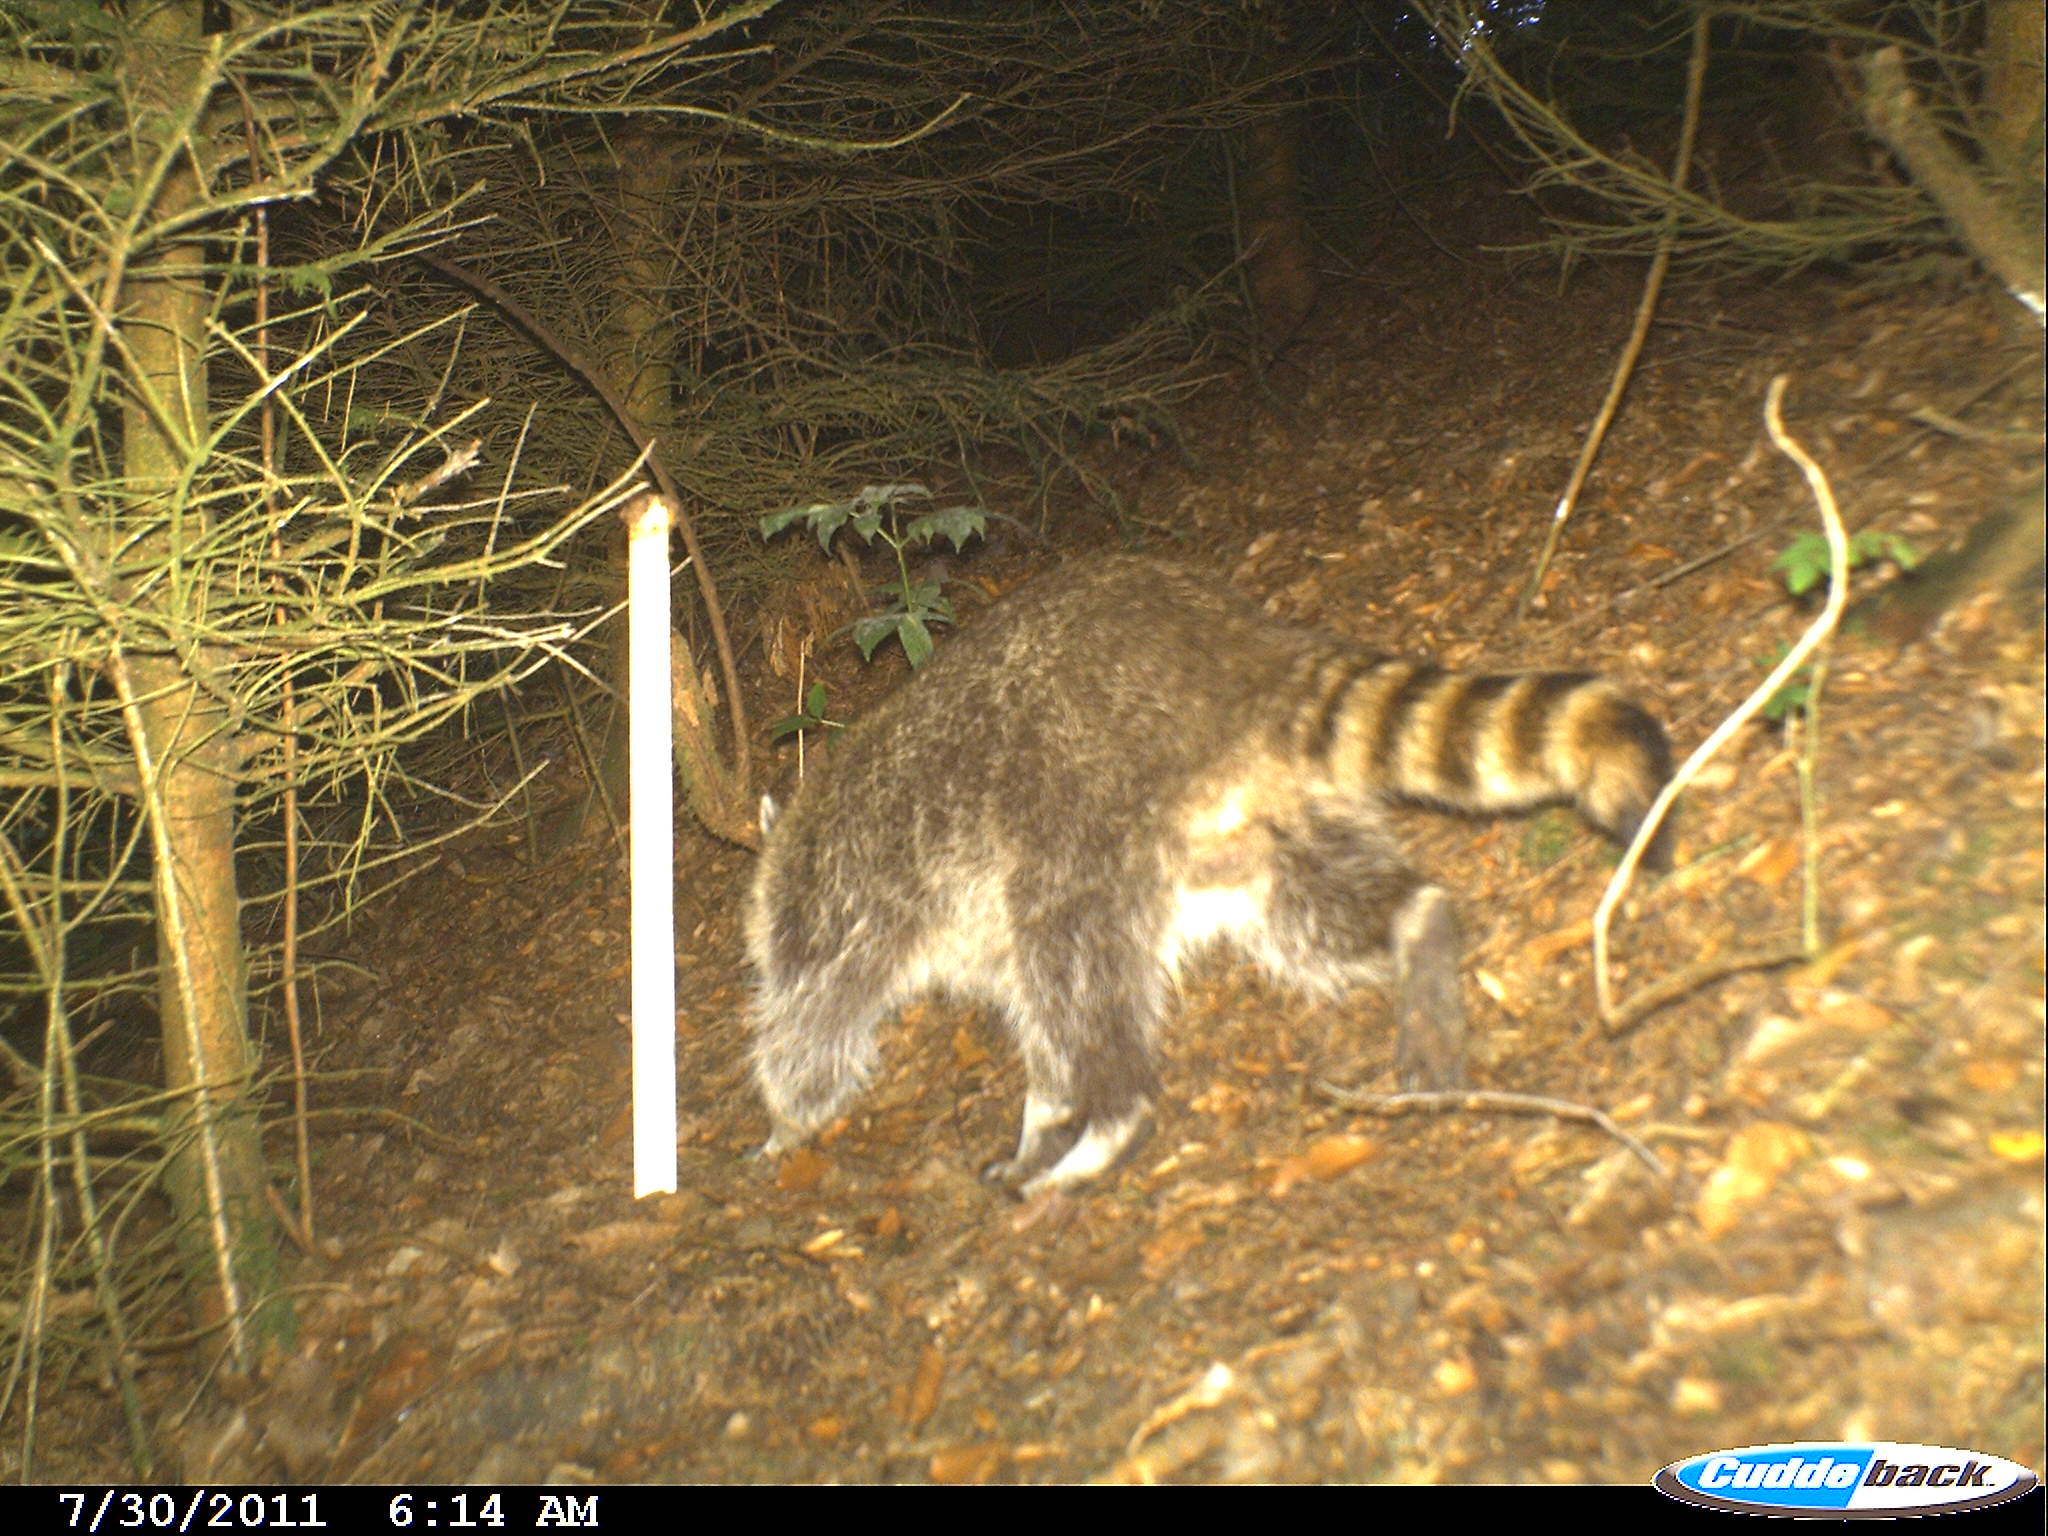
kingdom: Animalia
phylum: Chordata
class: Mammalia
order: Carnivora
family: Procyonidae
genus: Procyon
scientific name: Procyon lotor
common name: Raccoon
